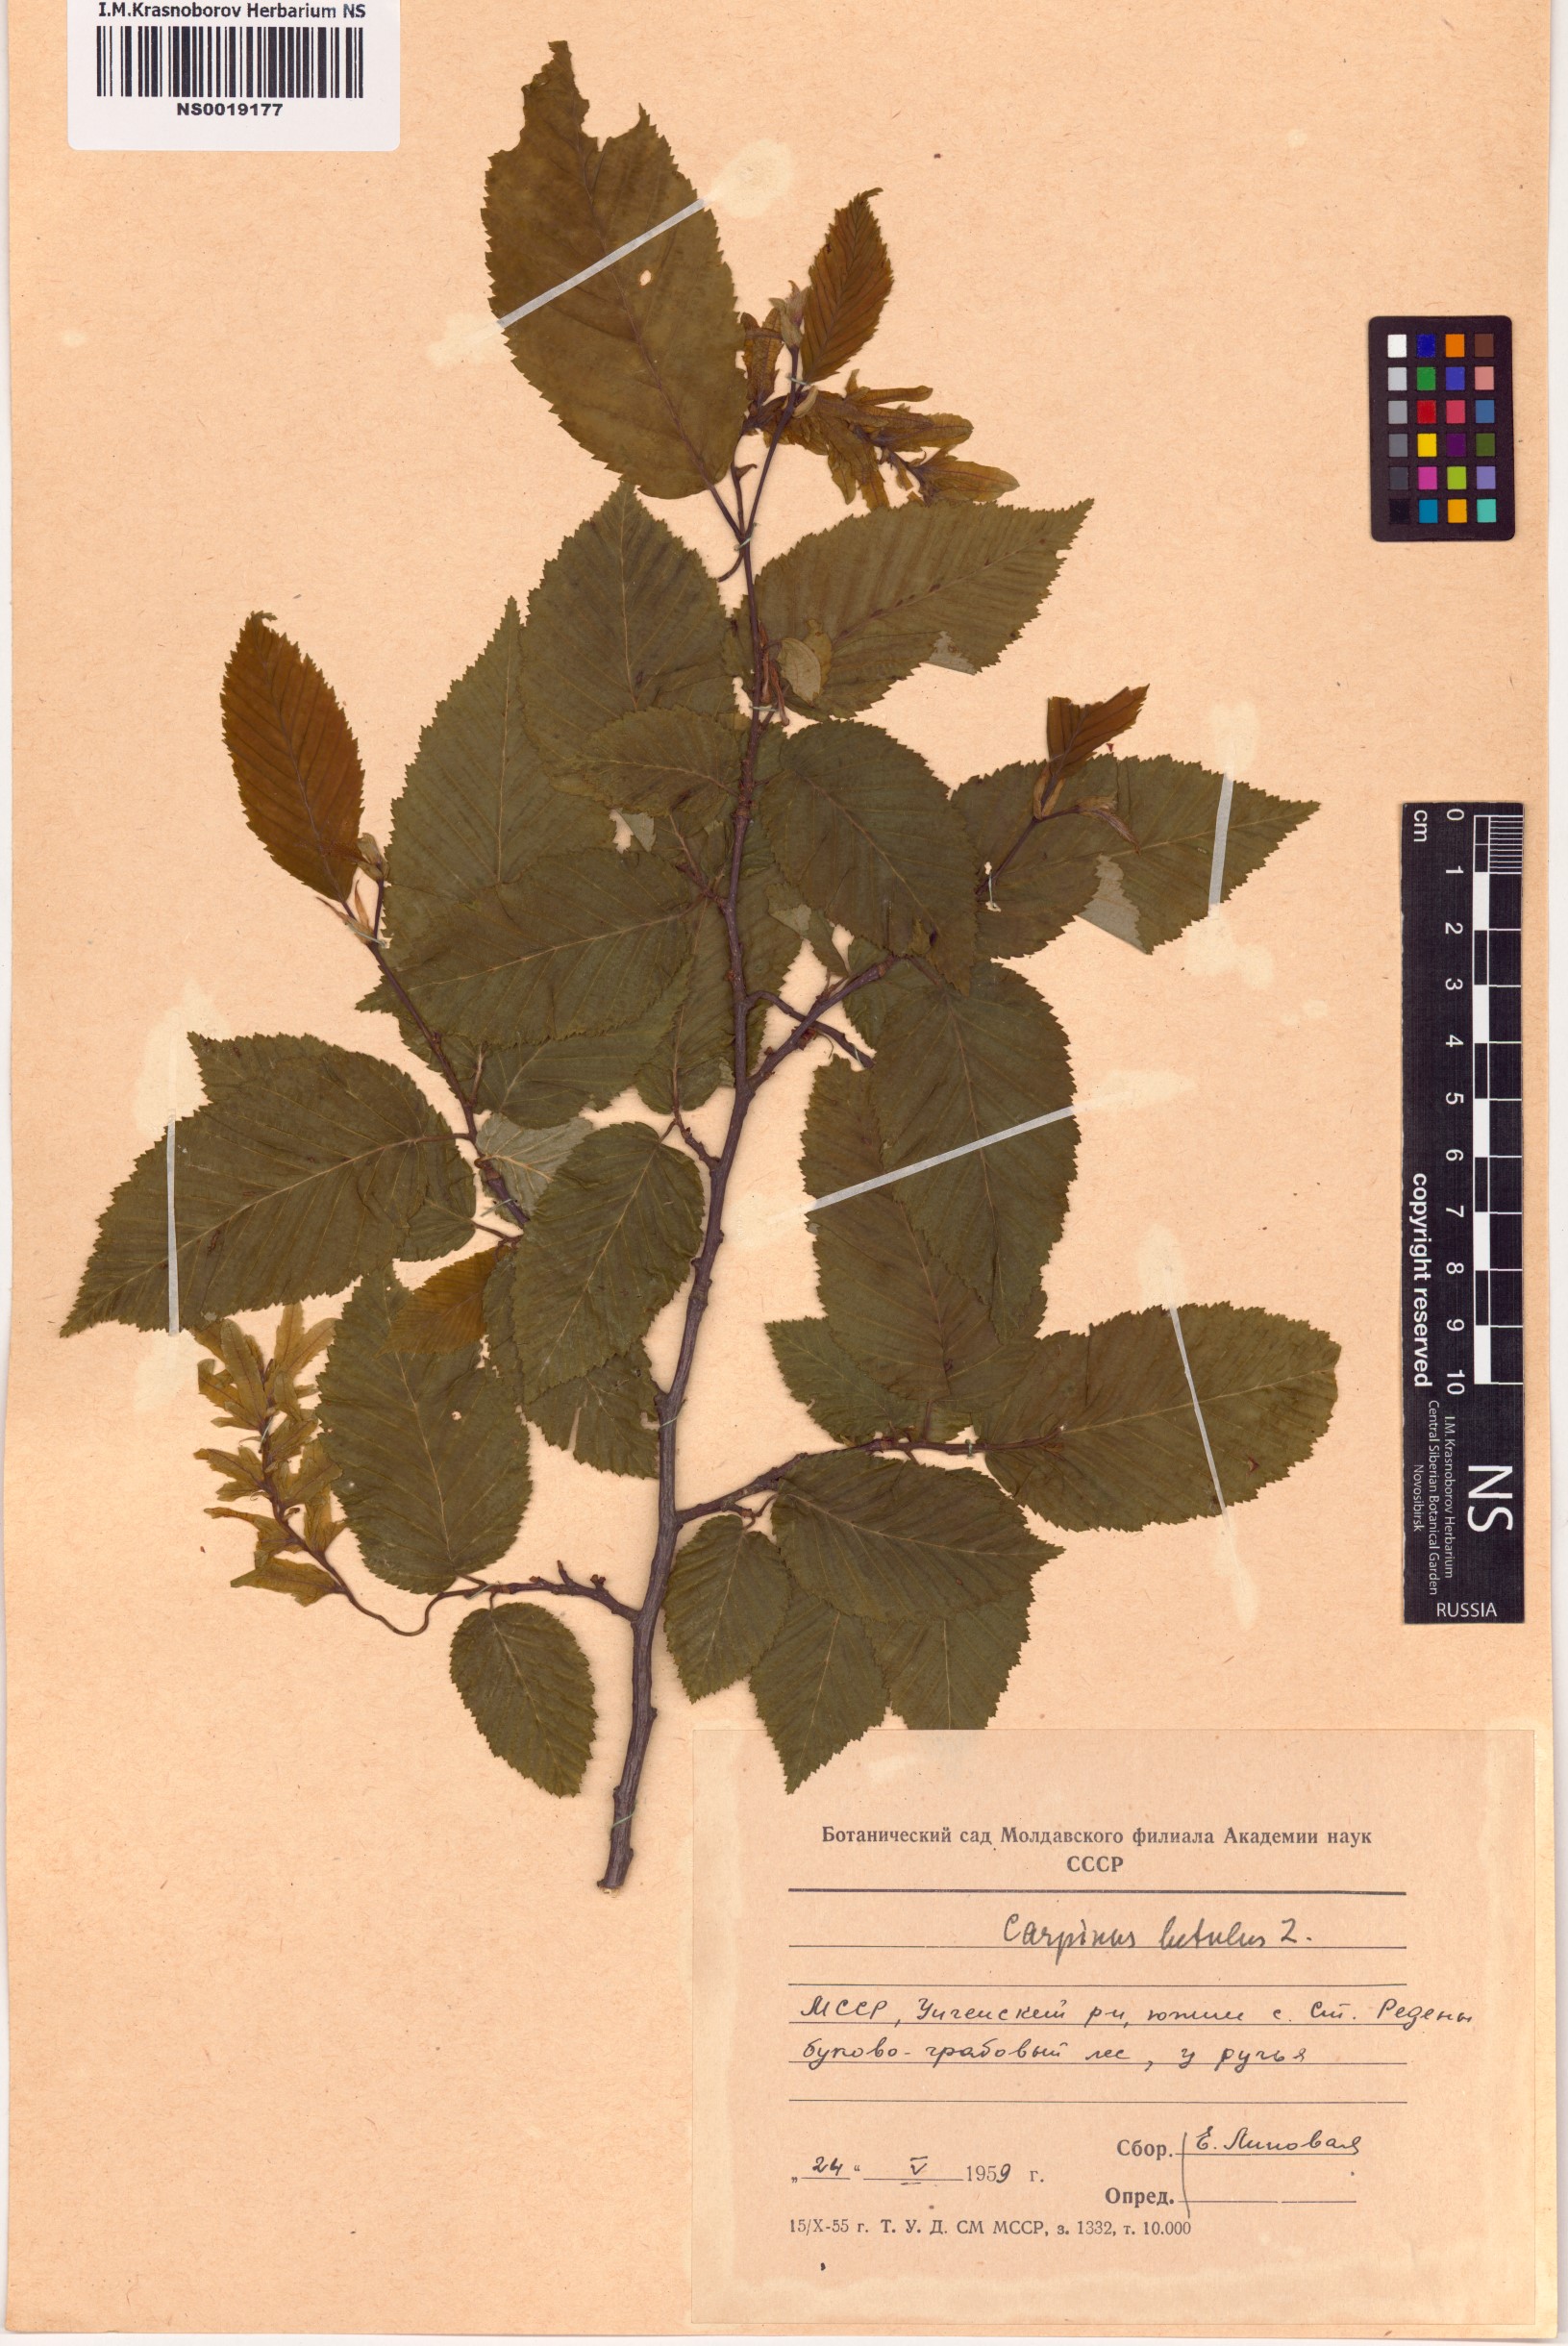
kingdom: Plantae
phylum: Tracheophyta
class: Magnoliopsida
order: Fagales
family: Betulaceae
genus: Carpinus
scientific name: Carpinus betulus
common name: Hornbeam
